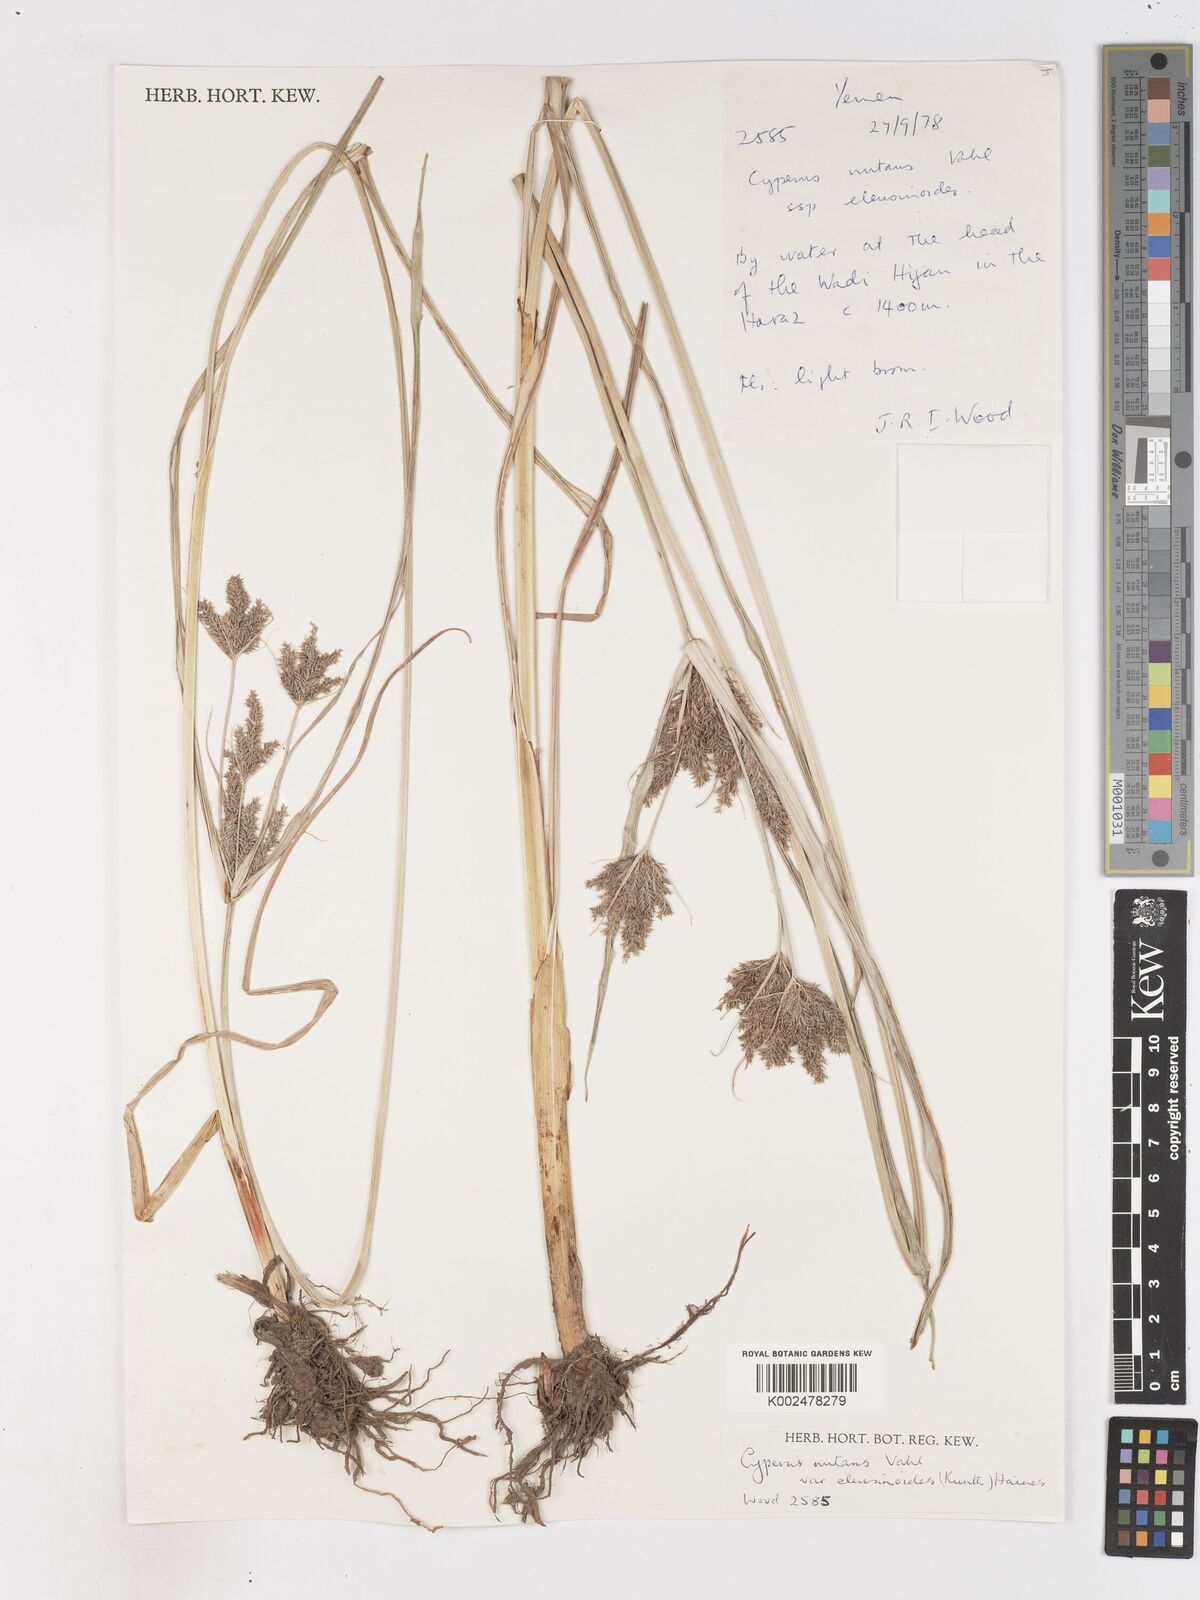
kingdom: Plantae
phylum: Tracheophyta
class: Liliopsida
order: Poales
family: Cyperaceae
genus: Cyperus
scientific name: Cyperus nutans
